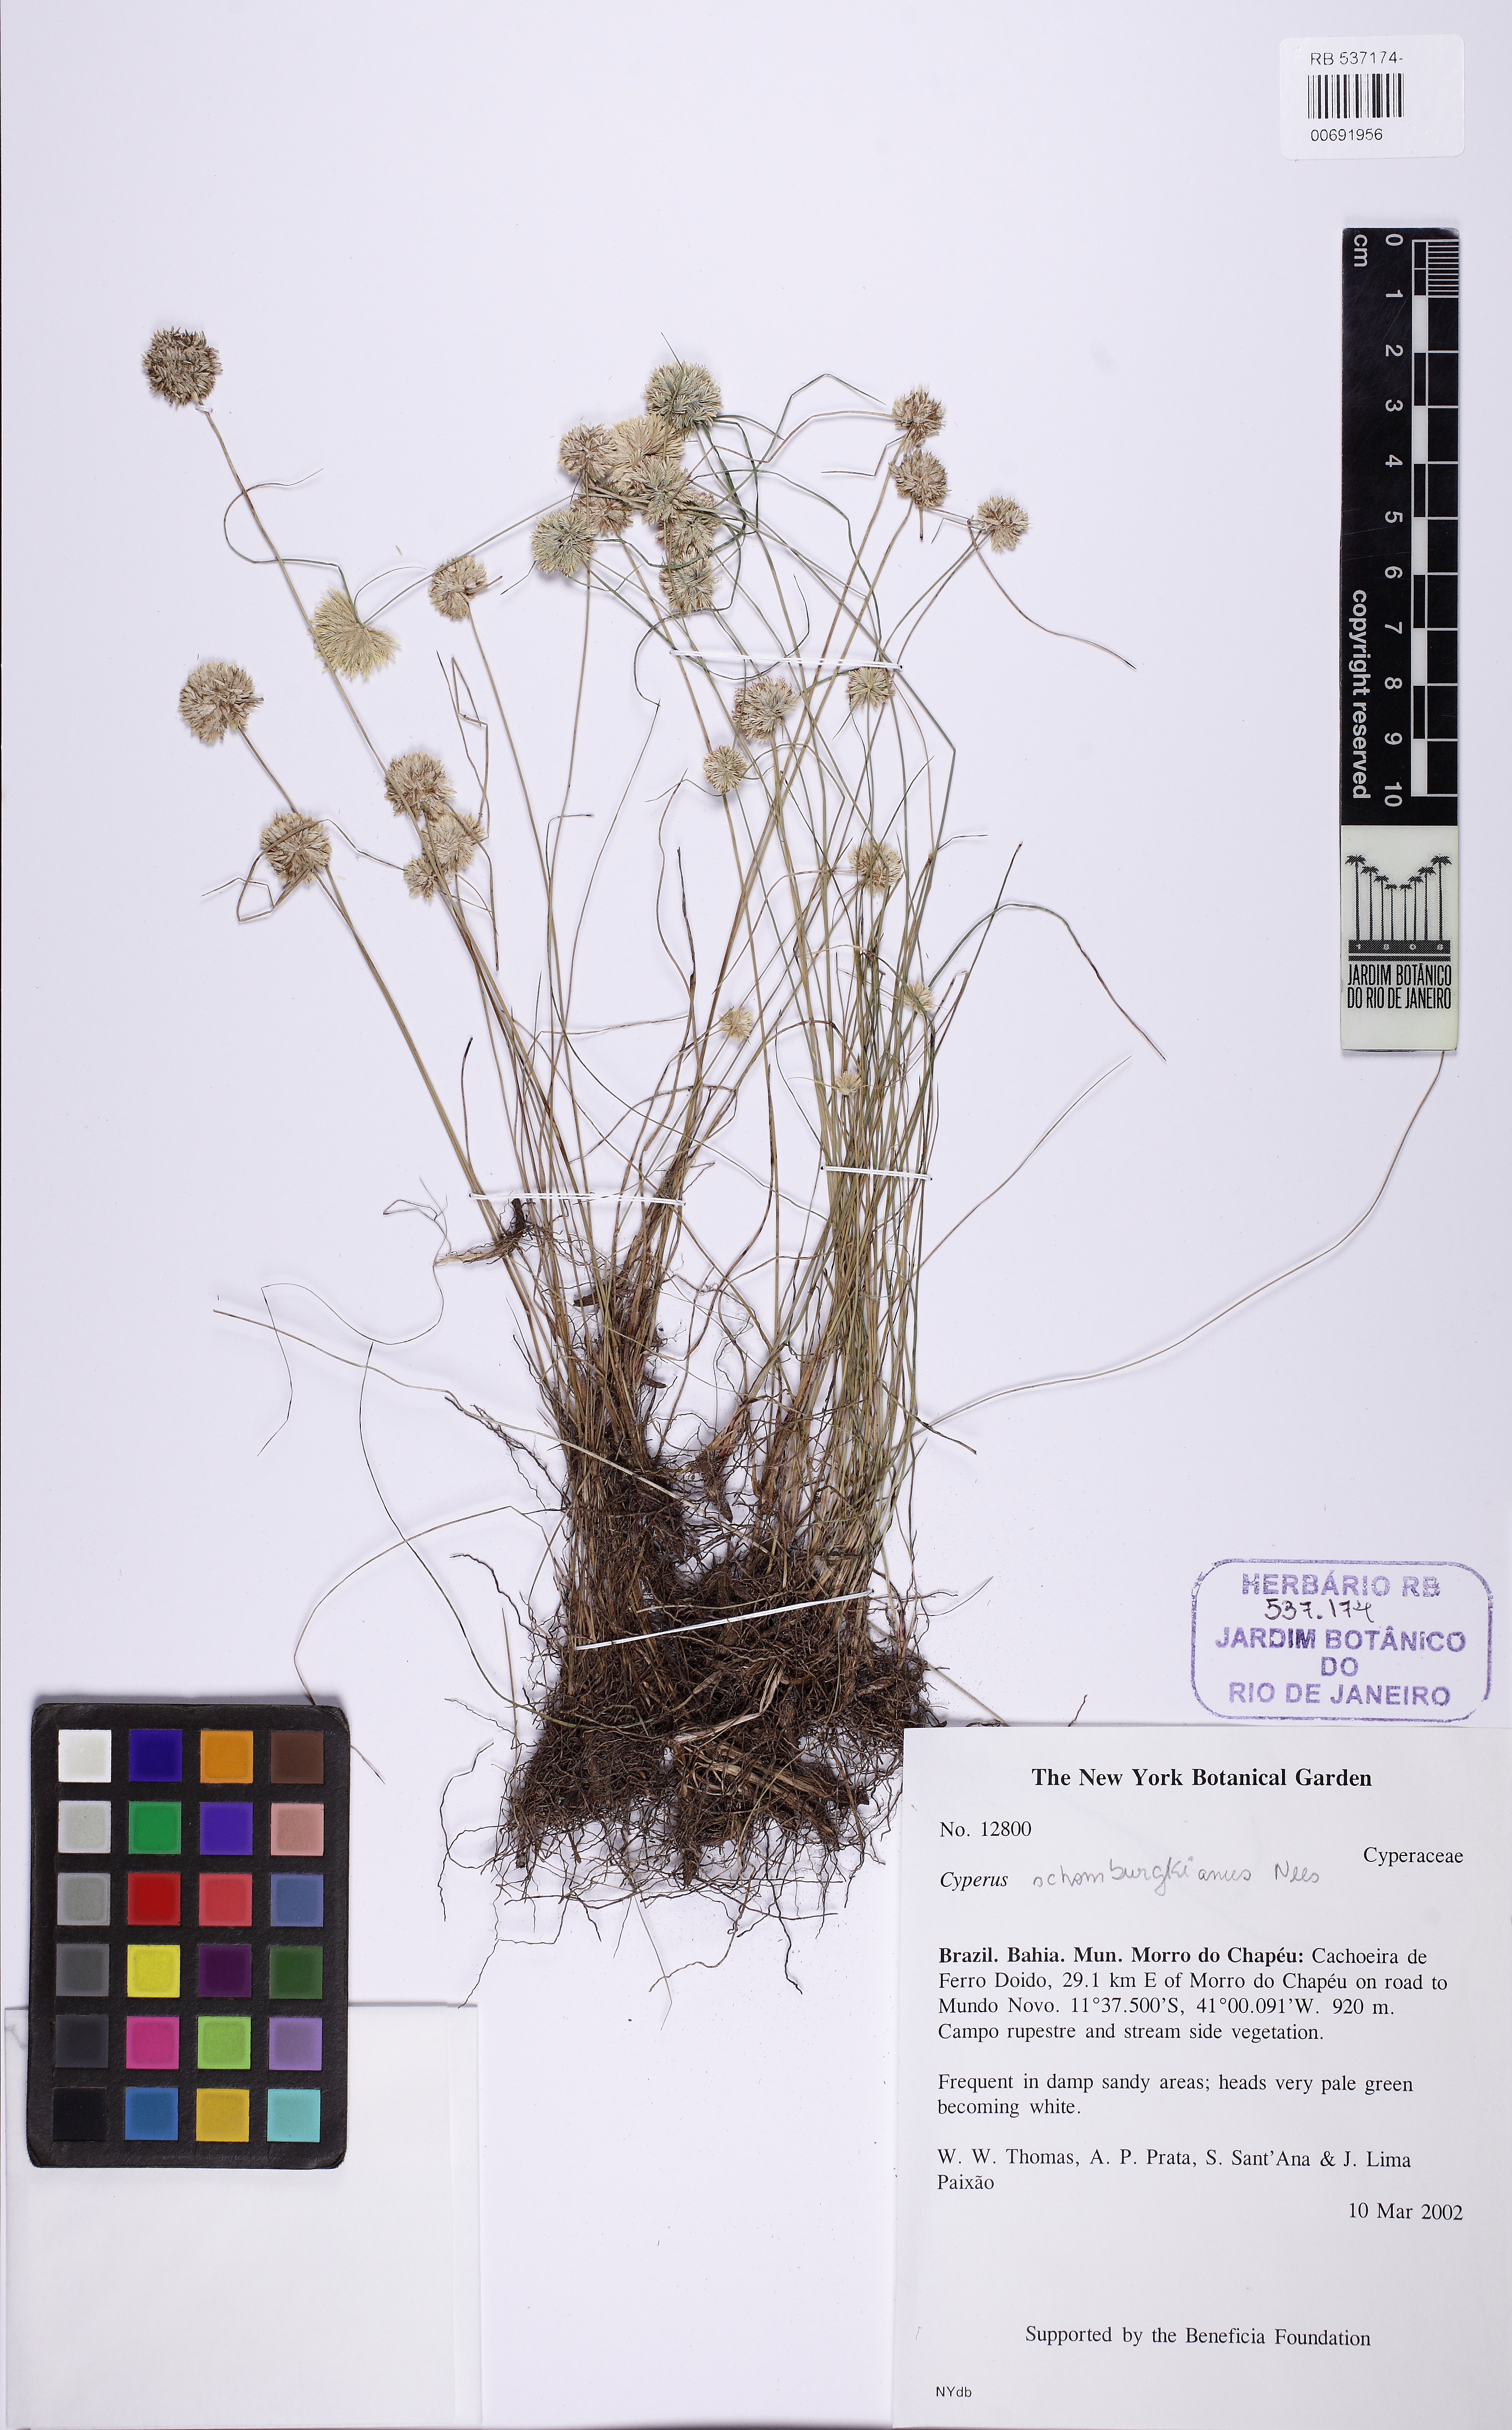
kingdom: Plantae
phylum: Tracheophyta
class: Liliopsida
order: Poales
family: Cyperaceae
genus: Cyperus
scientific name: Cyperus schomburgkianus
